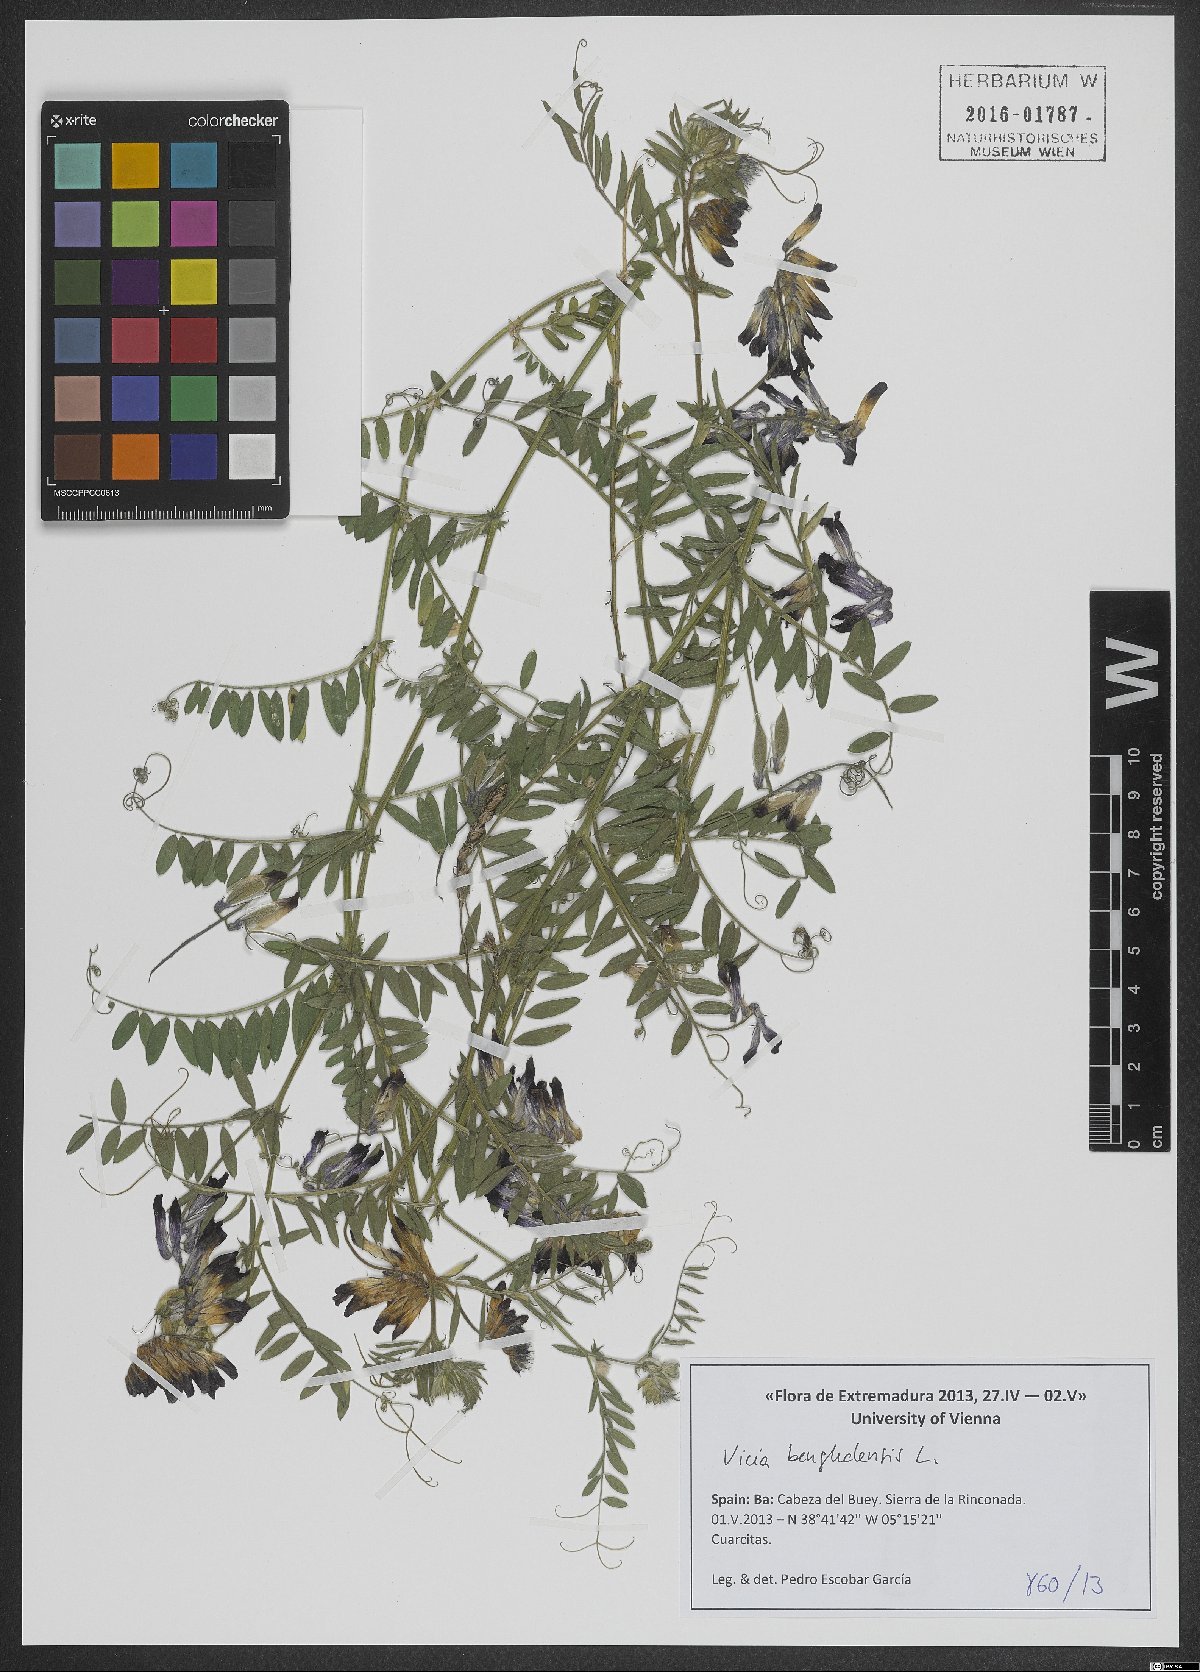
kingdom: Plantae
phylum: Tracheophyta
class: Magnoliopsida
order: Fabales
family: Fabaceae
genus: Vicia
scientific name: Vicia benghalensis
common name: Purple vetch
